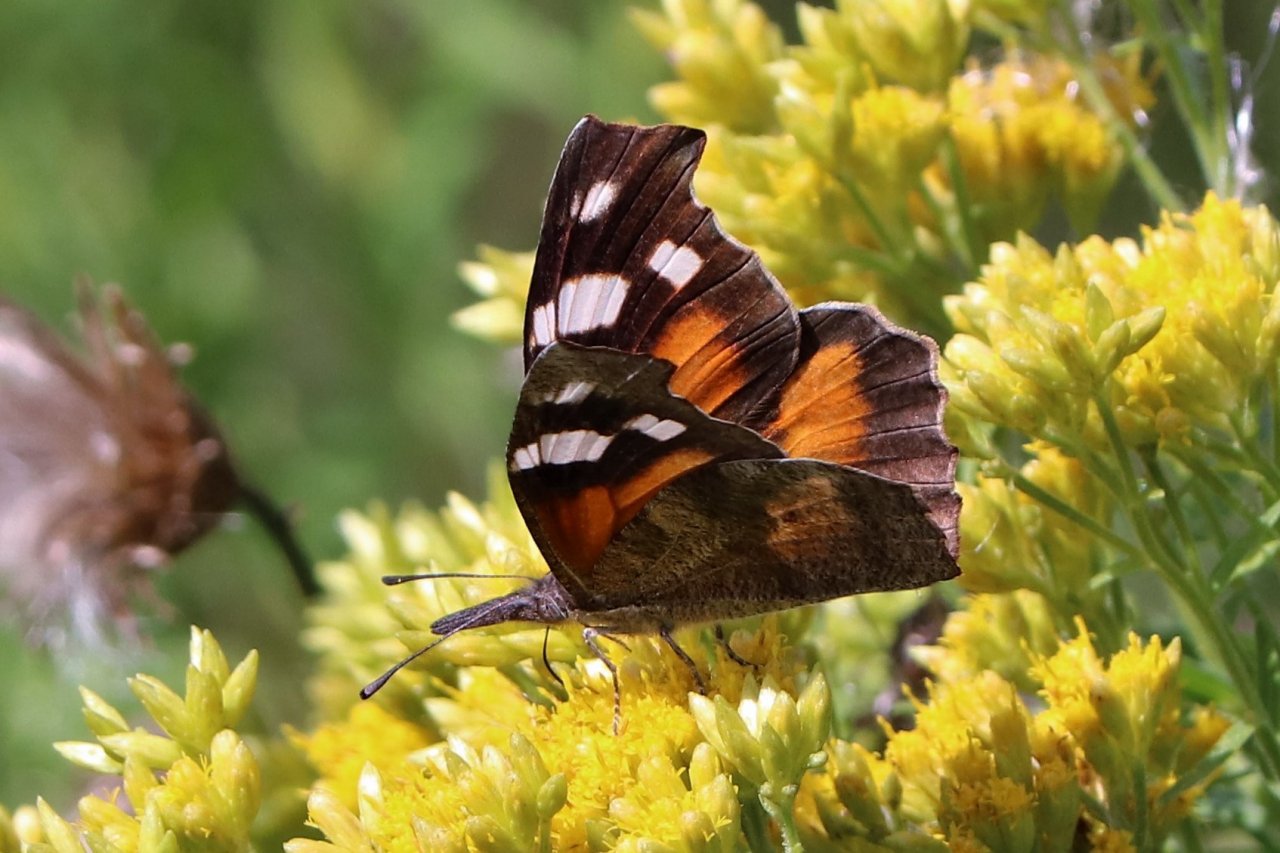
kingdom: Animalia
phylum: Arthropoda
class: Insecta
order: Lepidoptera
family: Nymphalidae
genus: Libytheana
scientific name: Libytheana carinenta
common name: American Snout
